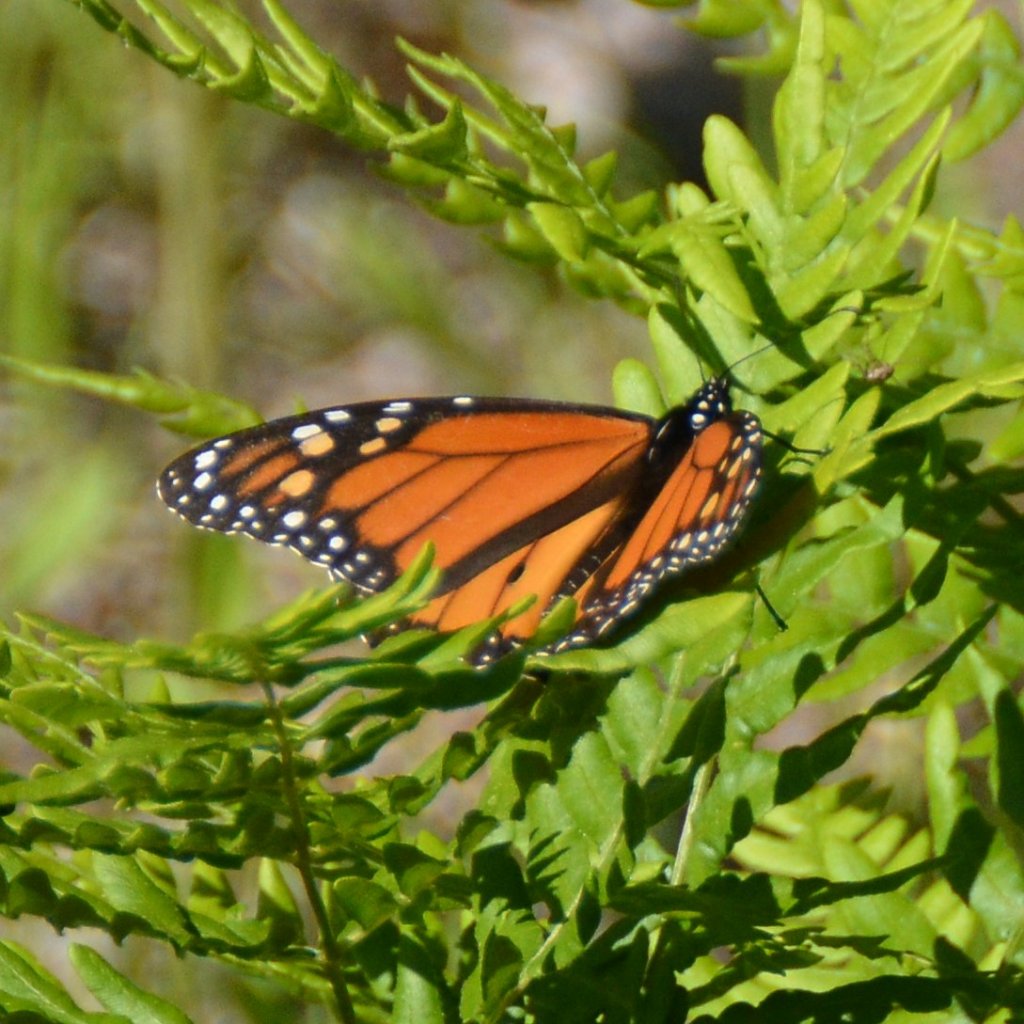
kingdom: Animalia
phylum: Arthropoda
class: Insecta
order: Lepidoptera
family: Nymphalidae
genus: Danaus
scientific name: Danaus plexippus
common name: Monarch
